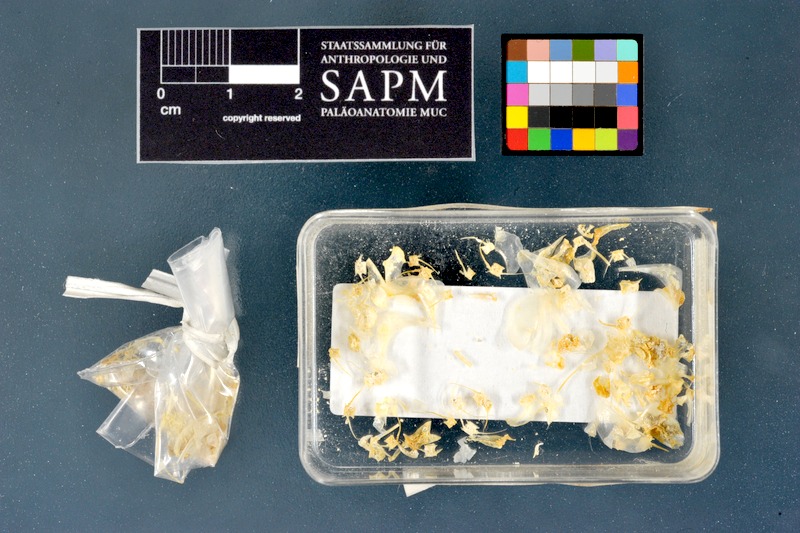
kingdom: Animalia
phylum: Chordata
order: Characiformes
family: Alestidae
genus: Micralestes
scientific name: Micralestes acutidens
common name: Silver robber
